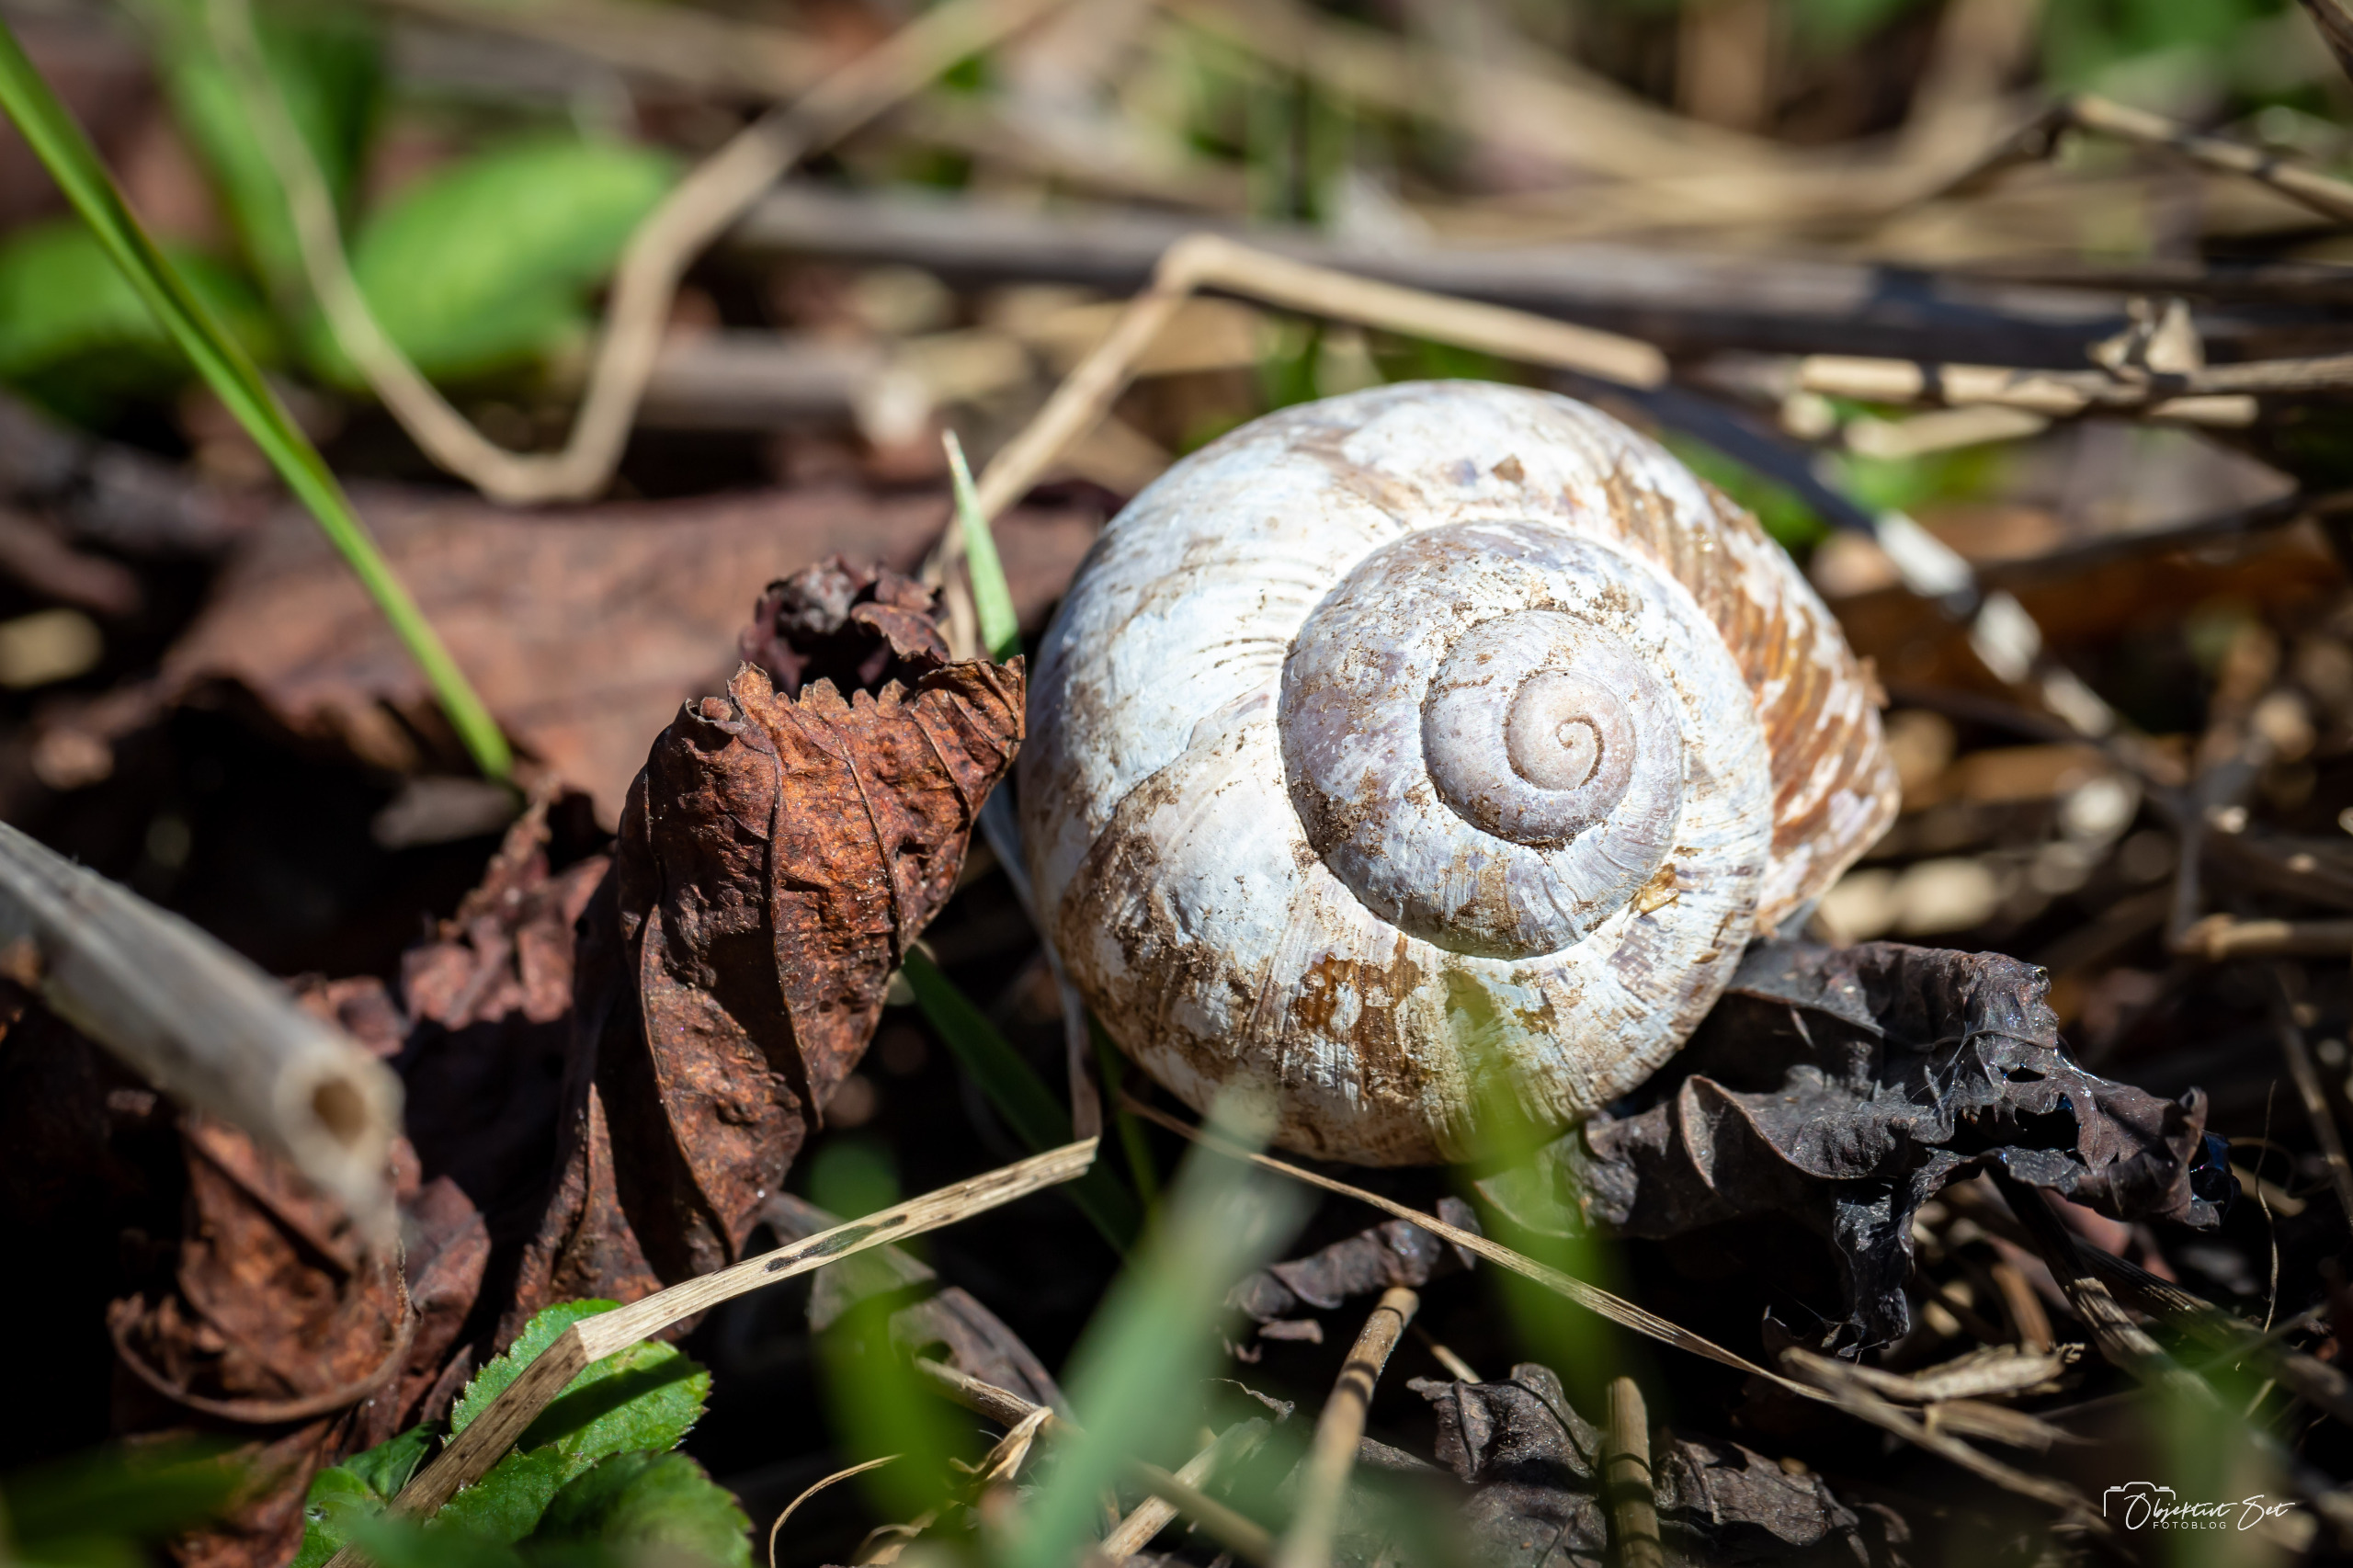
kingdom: Animalia
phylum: Mollusca
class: Gastropoda
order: Stylommatophora
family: Helicidae
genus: Helix
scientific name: Helix pomatia
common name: Vinbjergsnegl
